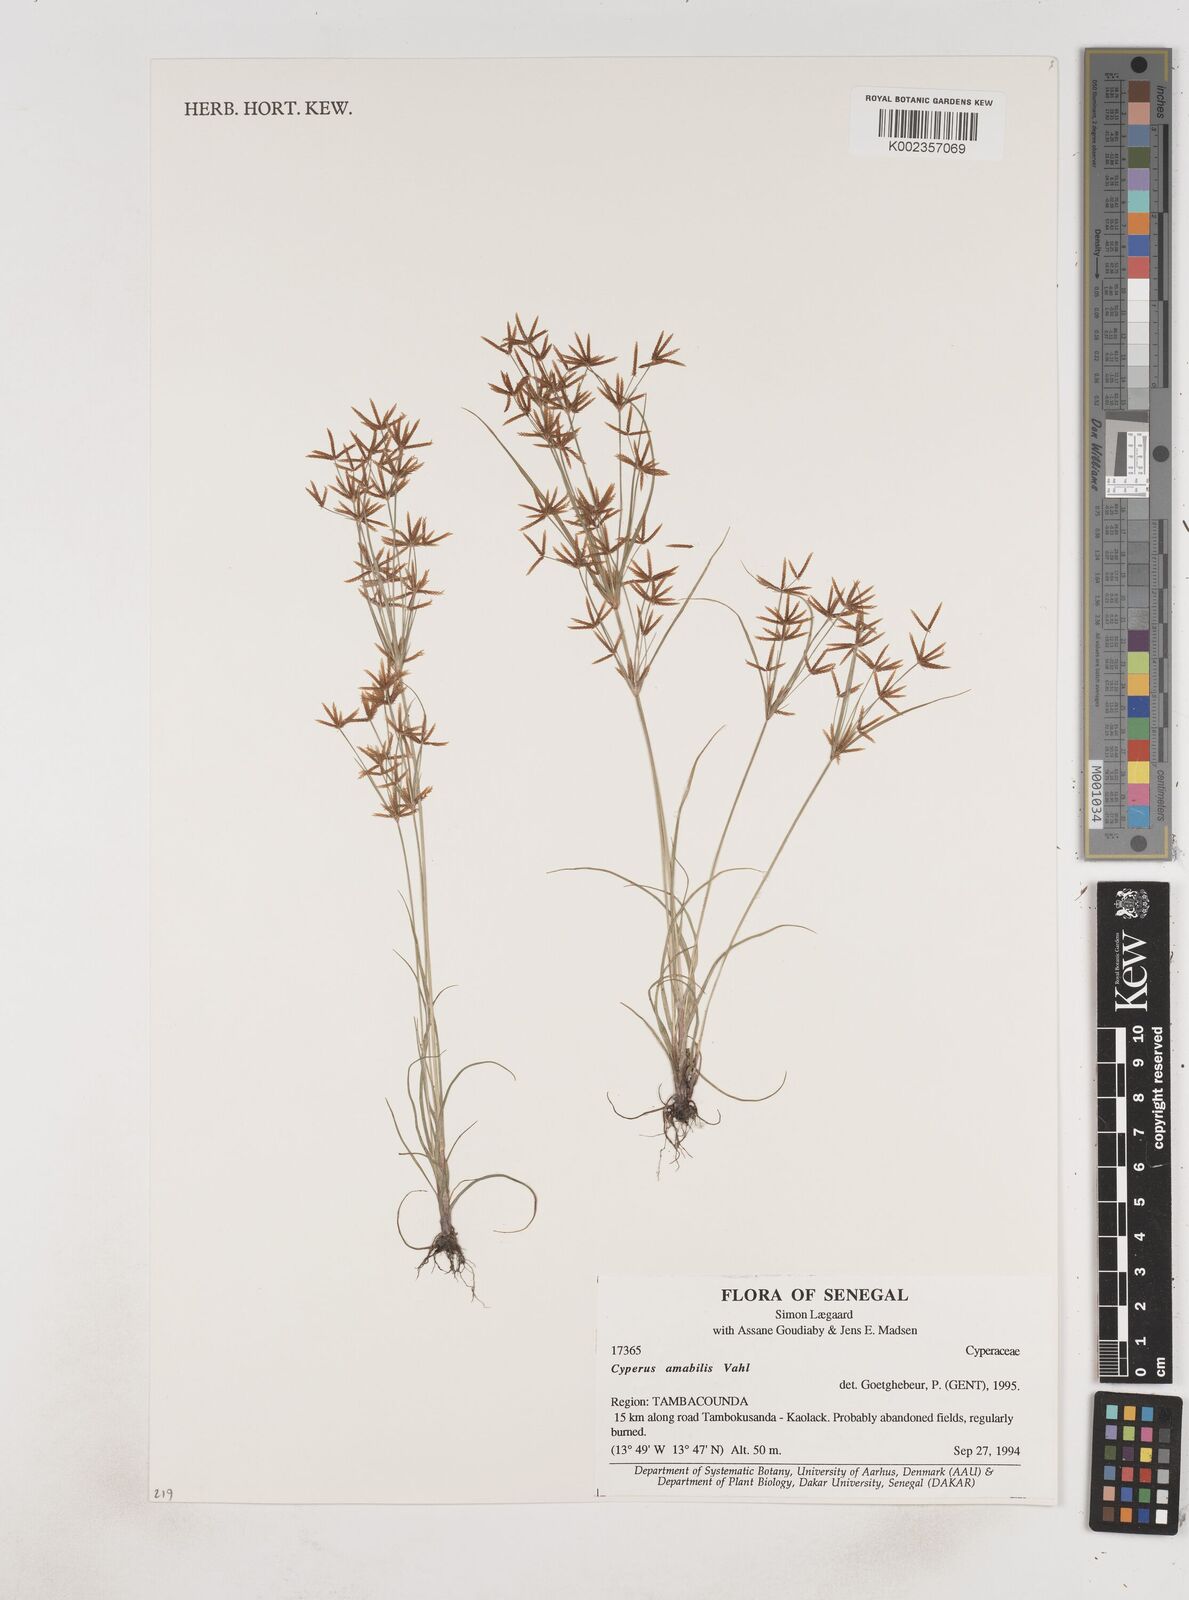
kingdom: Plantae
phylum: Tracheophyta
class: Liliopsida
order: Poales
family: Cyperaceae
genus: Cyperus
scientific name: Cyperus amabilis
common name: Foothill flat sedge
